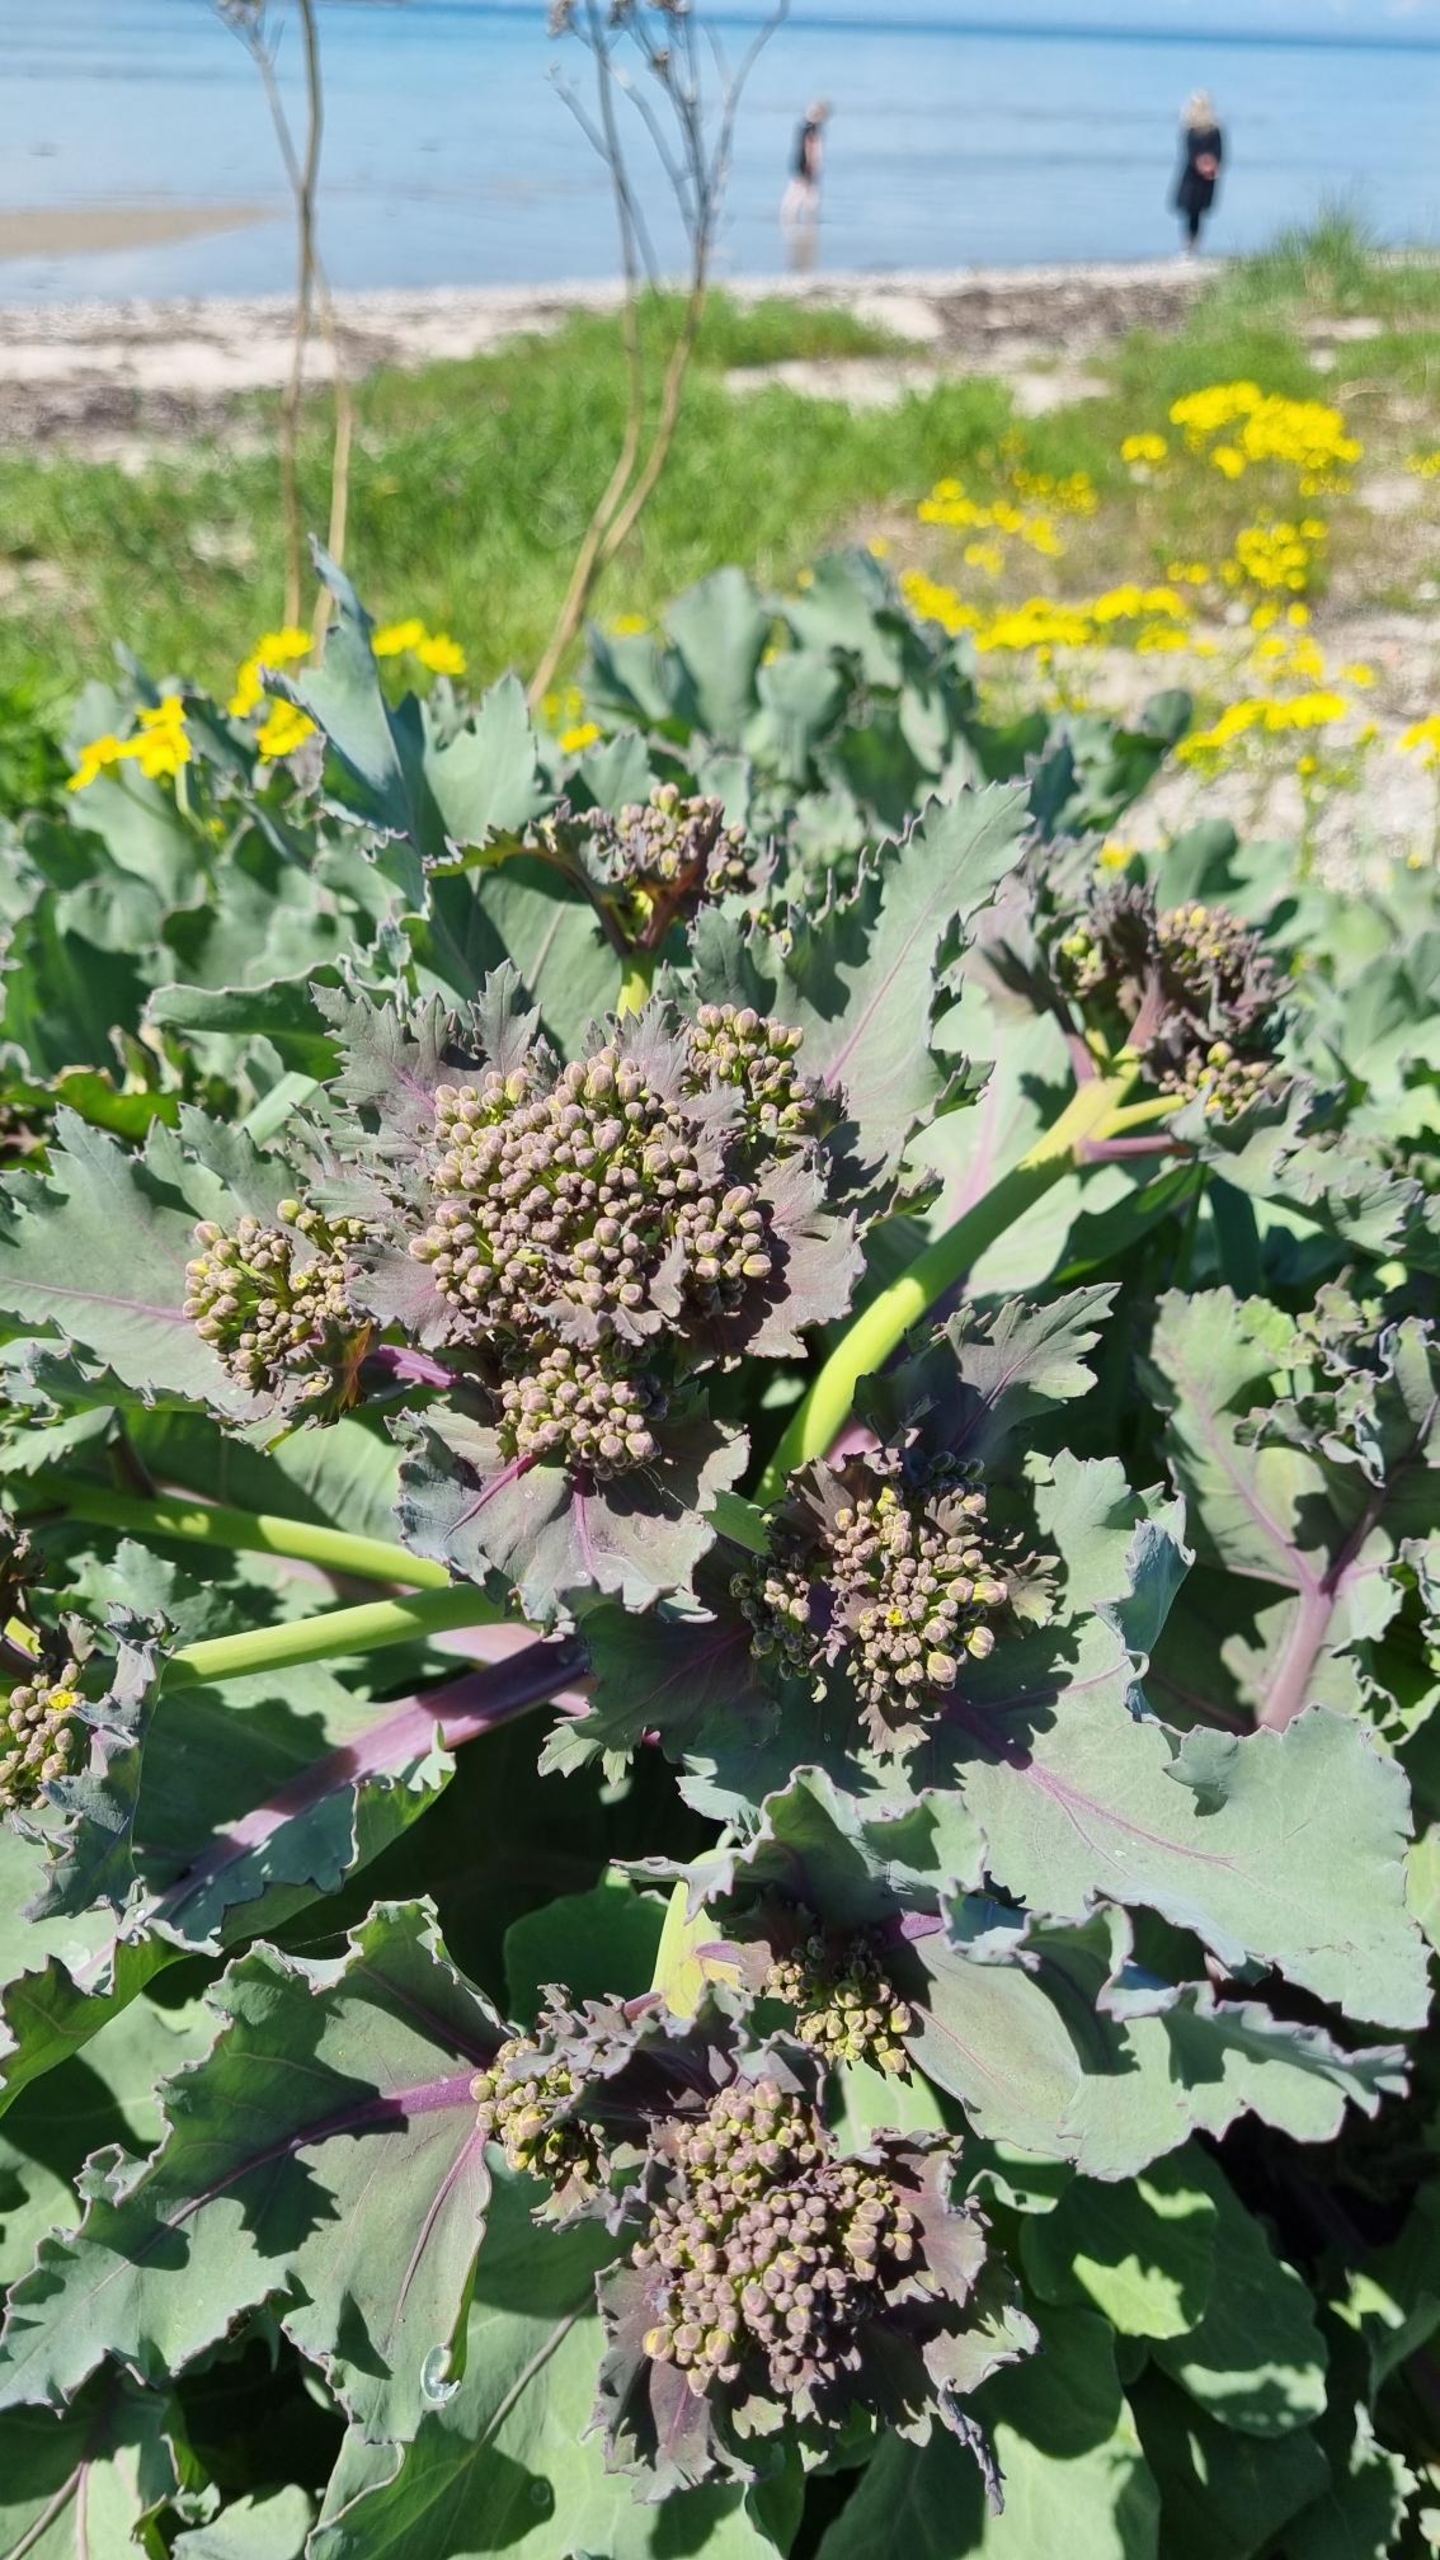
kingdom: Plantae
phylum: Tracheophyta
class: Magnoliopsida
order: Brassicales
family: Brassicaceae
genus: Crambe
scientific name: Crambe maritima
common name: Strandkål
